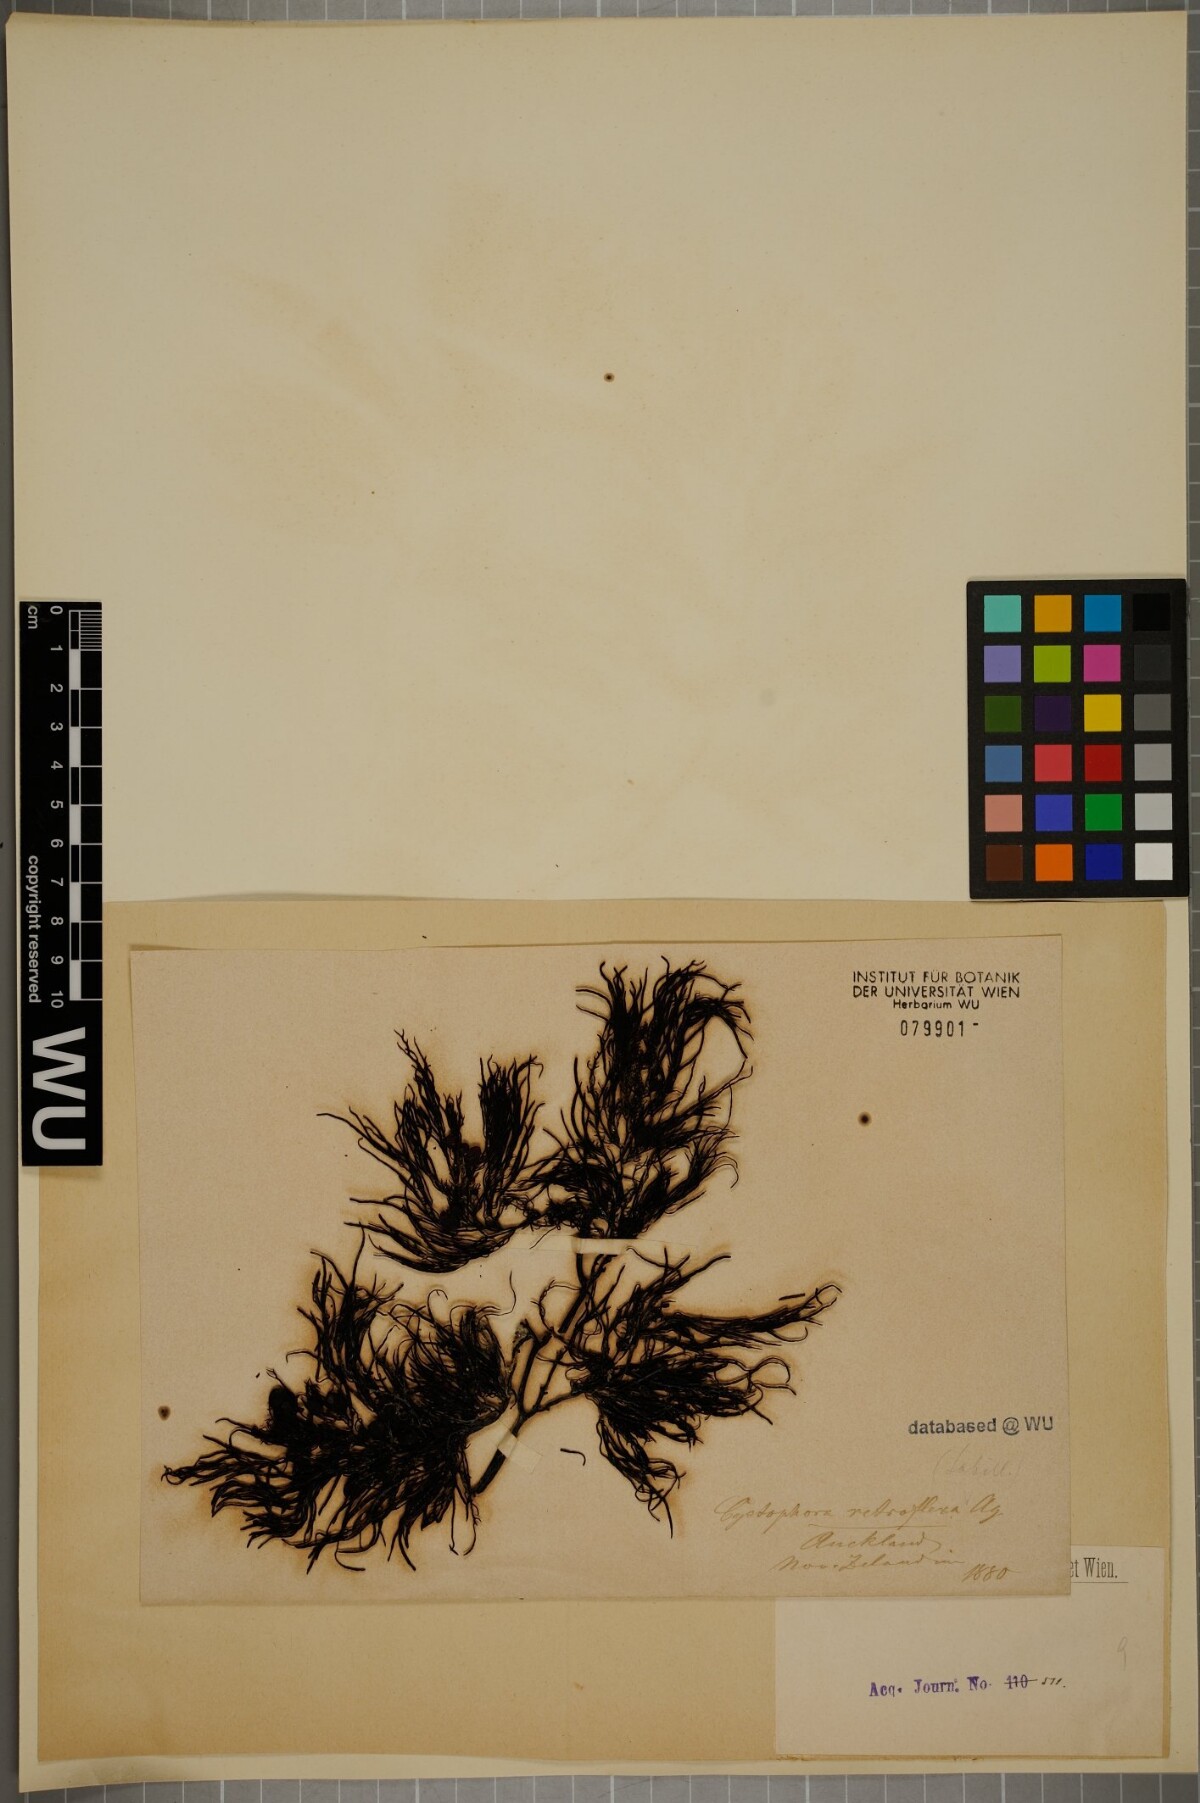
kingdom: Chromista
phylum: Ochrophyta
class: Phaeophyceae
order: Fucales
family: Sargassaceae
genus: Cystophora
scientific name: Cystophora retroflexa
